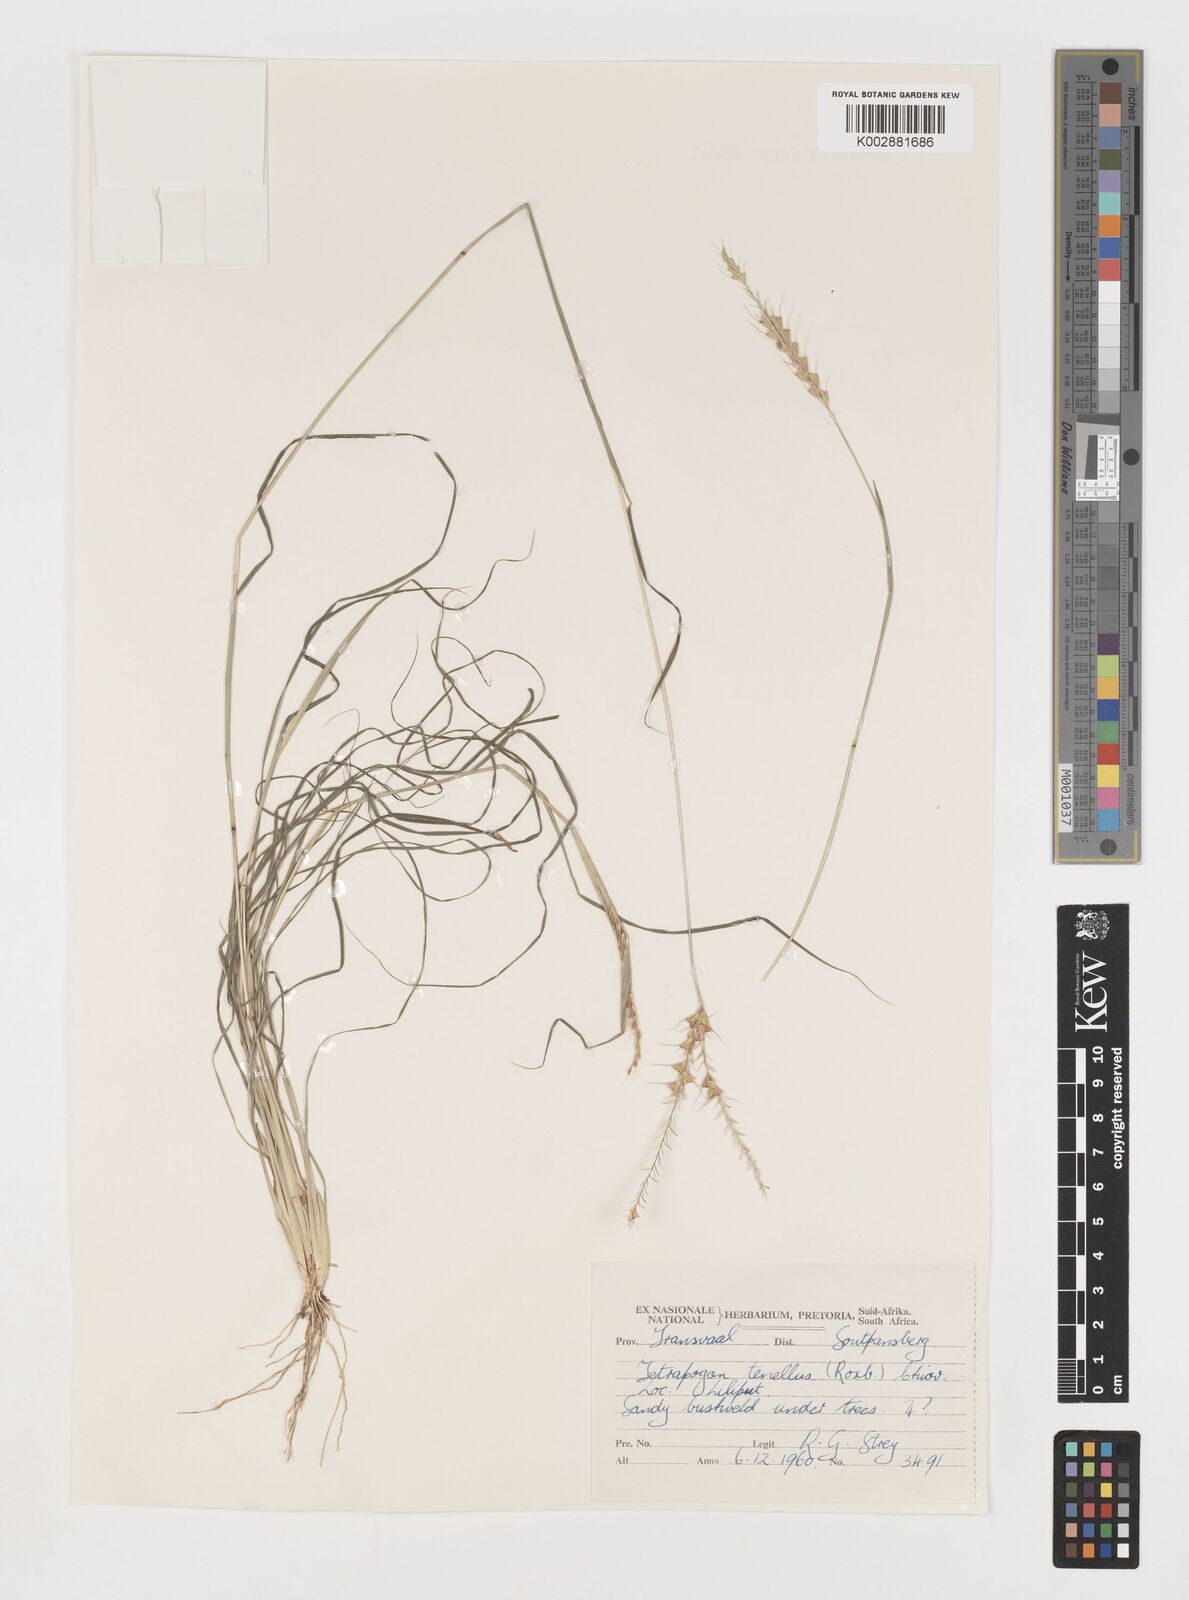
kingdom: Plantae
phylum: Tracheophyta
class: Liliopsida
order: Poales
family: Poaceae
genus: Tetrapogon
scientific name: Tetrapogon tenellus
